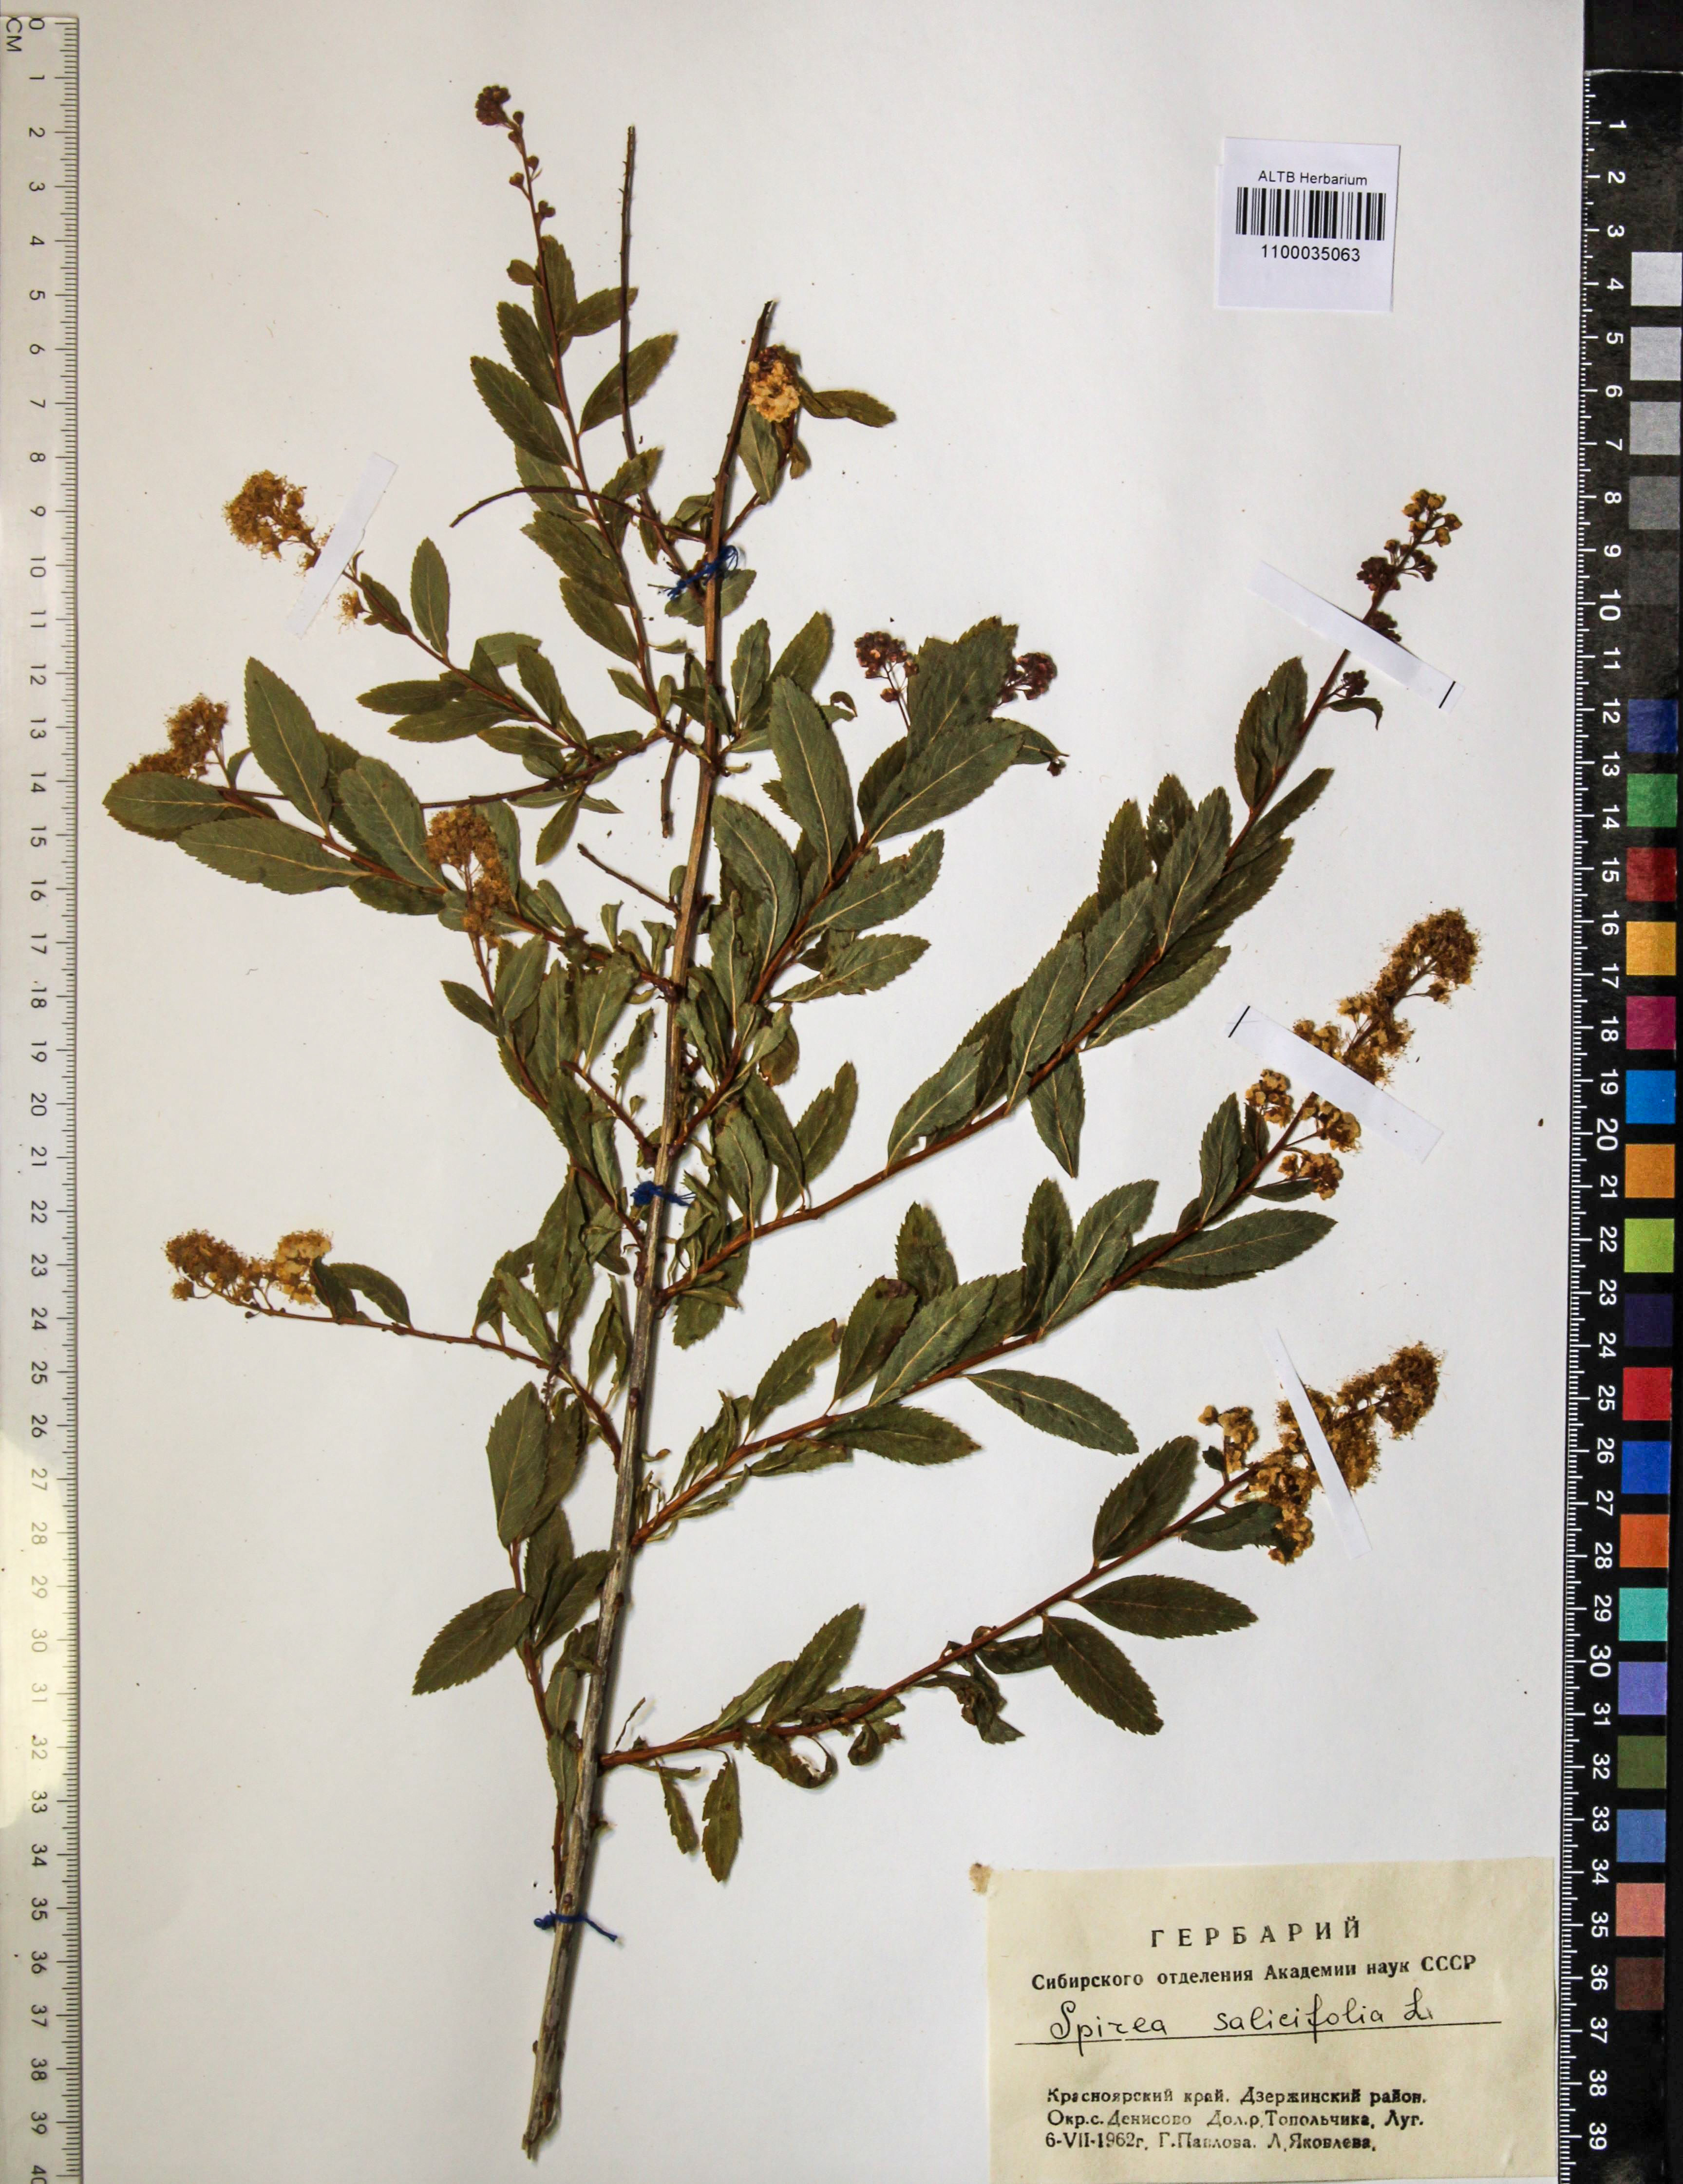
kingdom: Plantae
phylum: Tracheophyta
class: Magnoliopsida
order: Rosales
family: Rosaceae
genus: Spiraea
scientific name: Spiraea salicifolia
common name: Bridewort
